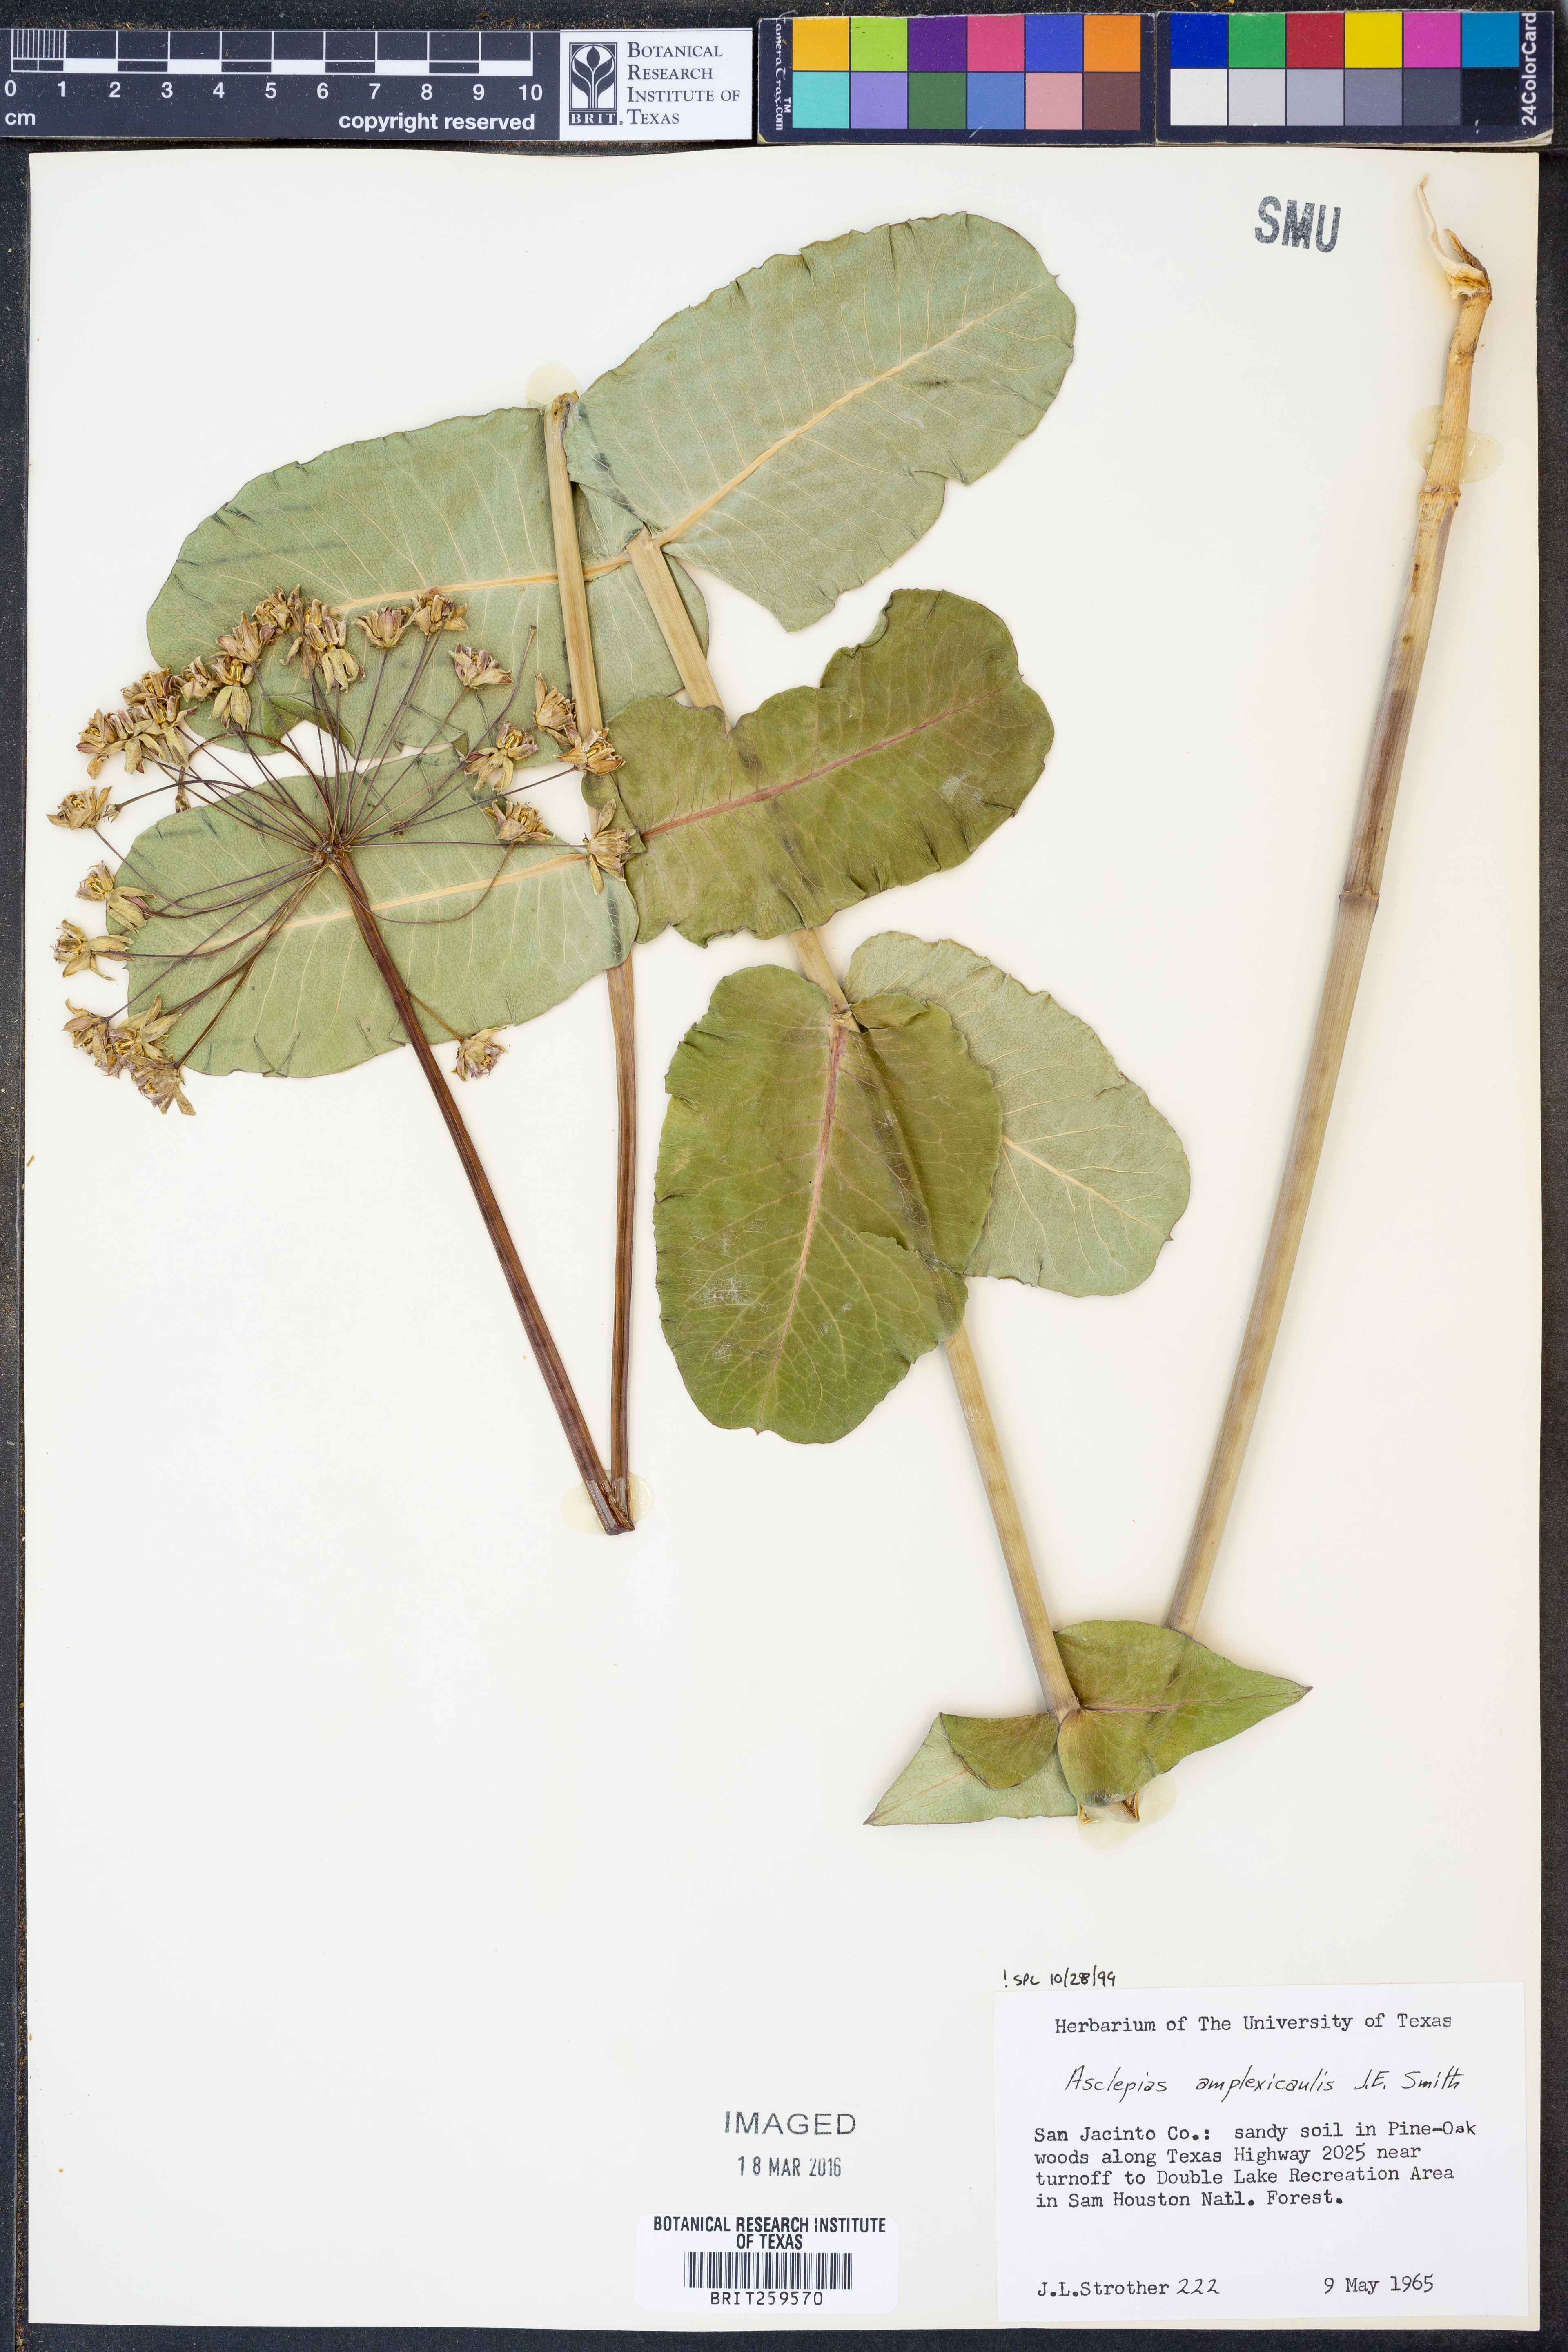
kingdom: Plantae
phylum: Tracheophyta
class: Magnoliopsida
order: Gentianales
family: Apocynaceae
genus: Asclepias
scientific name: Asclepias amplexicaulis
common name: Blunt-leaf milkweed
